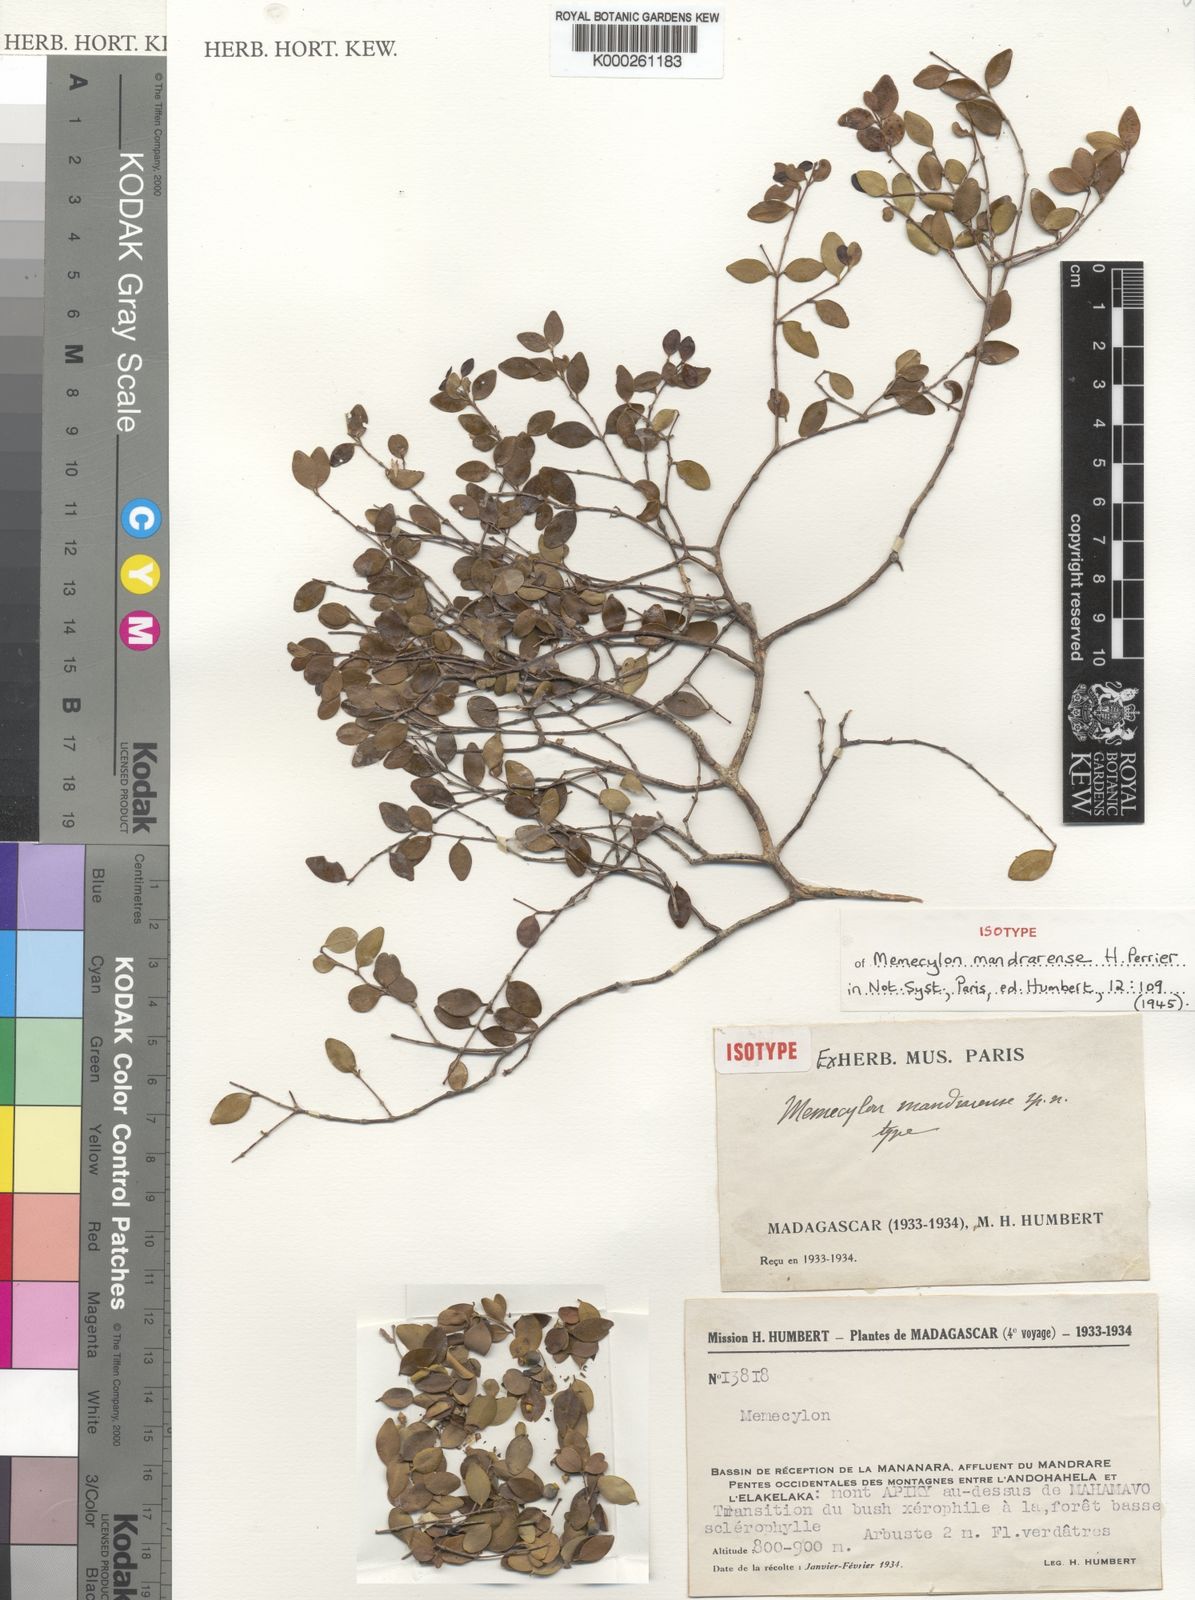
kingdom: Plantae
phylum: Tracheophyta
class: Magnoliopsida
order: Myrtales
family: Melastomataceae
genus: Memecylon
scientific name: Memecylon mandrarense
